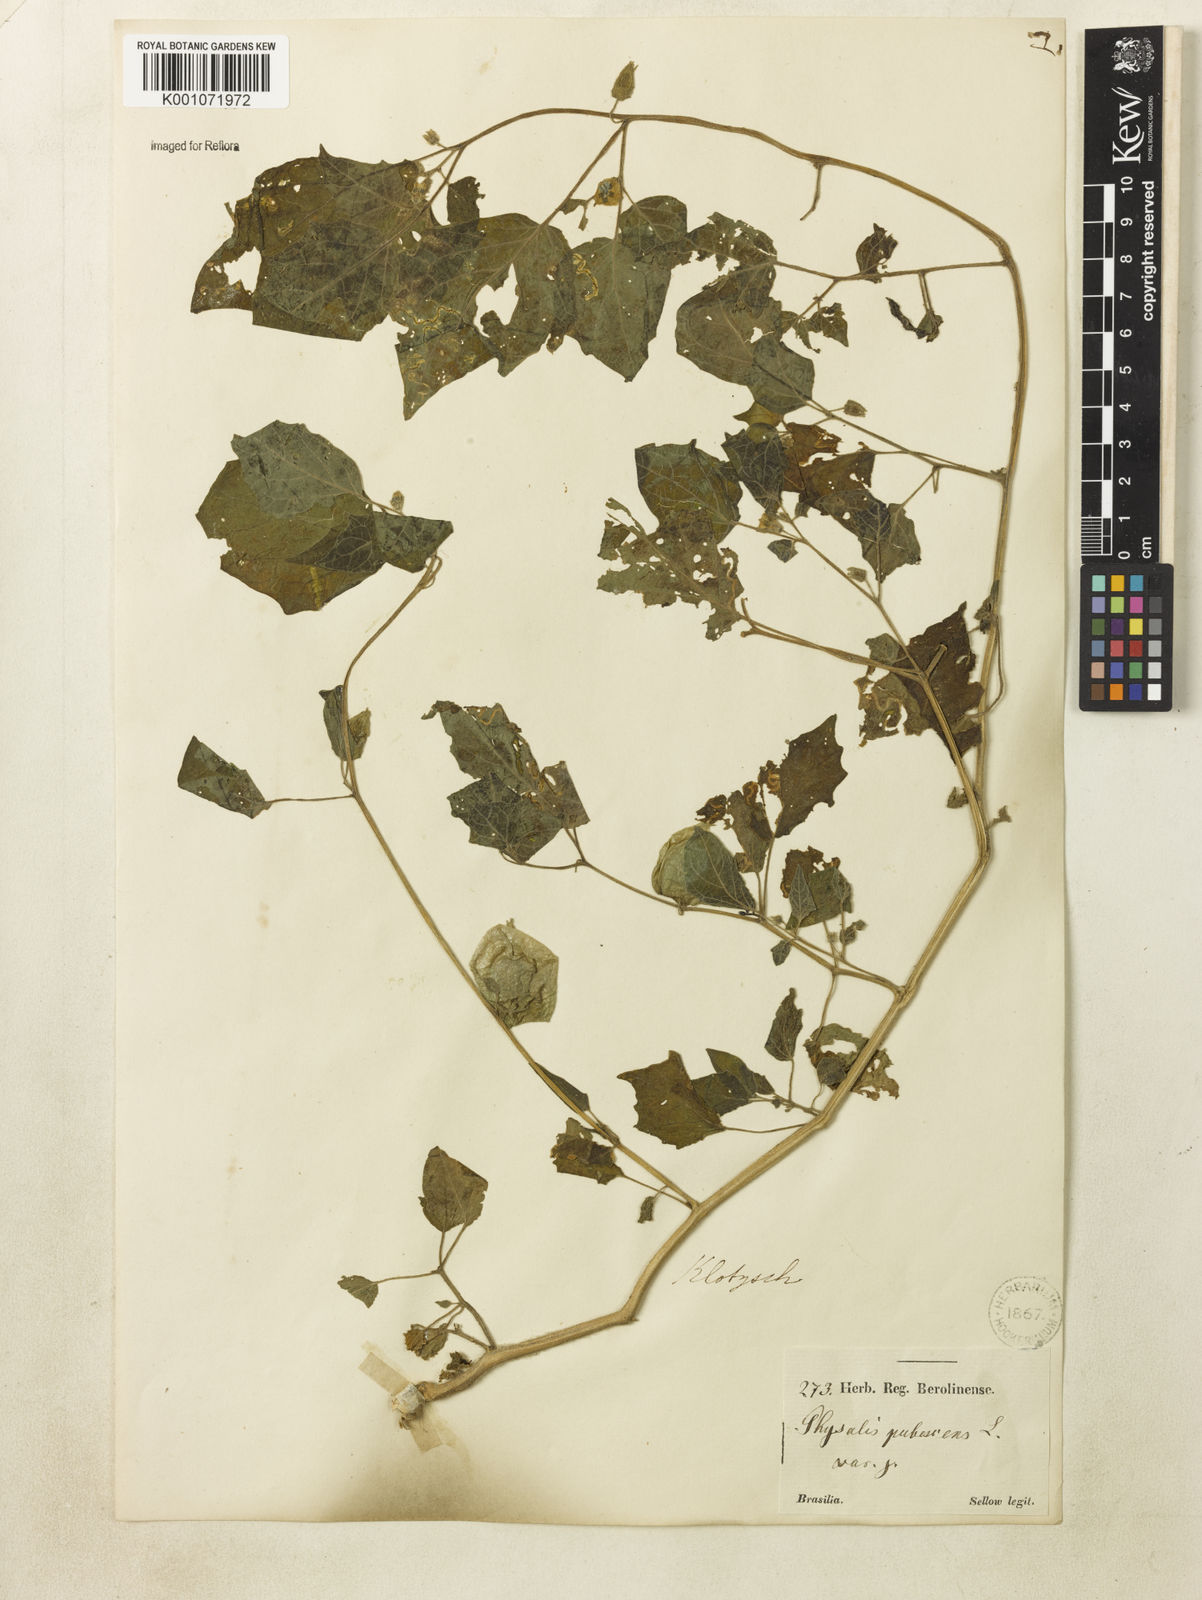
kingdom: Plantae
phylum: Tracheophyta
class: Magnoliopsida
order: Solanales
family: Solanaceae
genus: Physalis
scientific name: Physalis pubescens
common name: Downy ground-cherry
